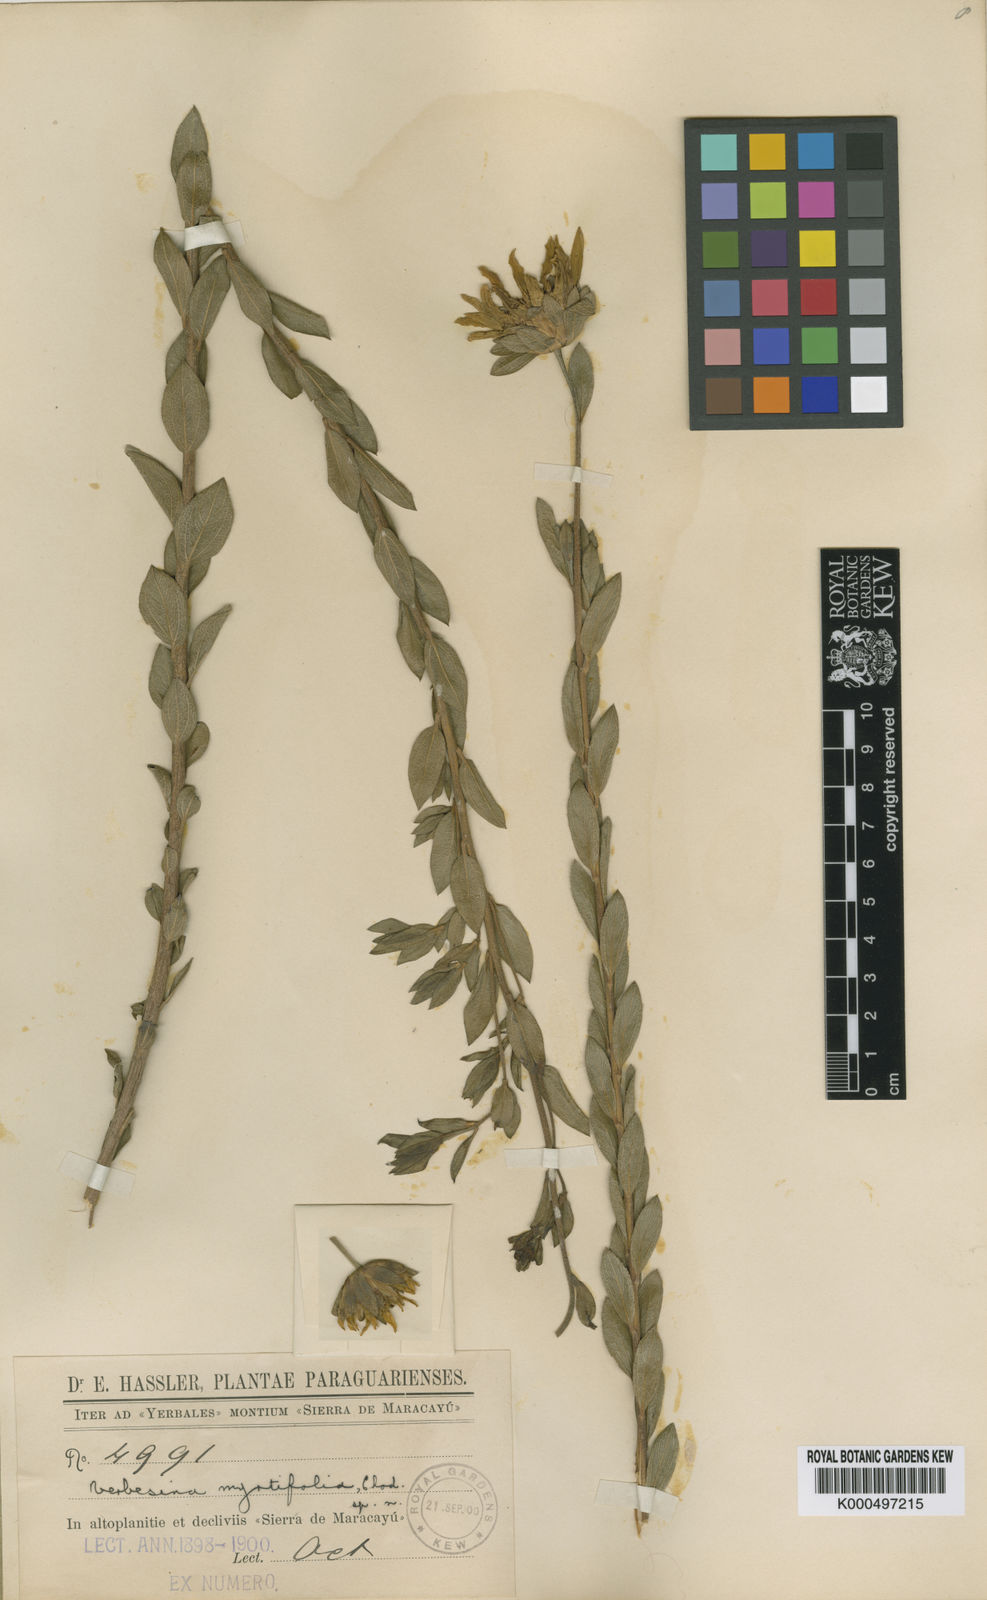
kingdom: Plantae
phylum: Tracheophyta
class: Magnoliopsida
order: Asterales
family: Asteraceae
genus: Dimerostemma
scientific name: Dimerostemma myrtifolium
